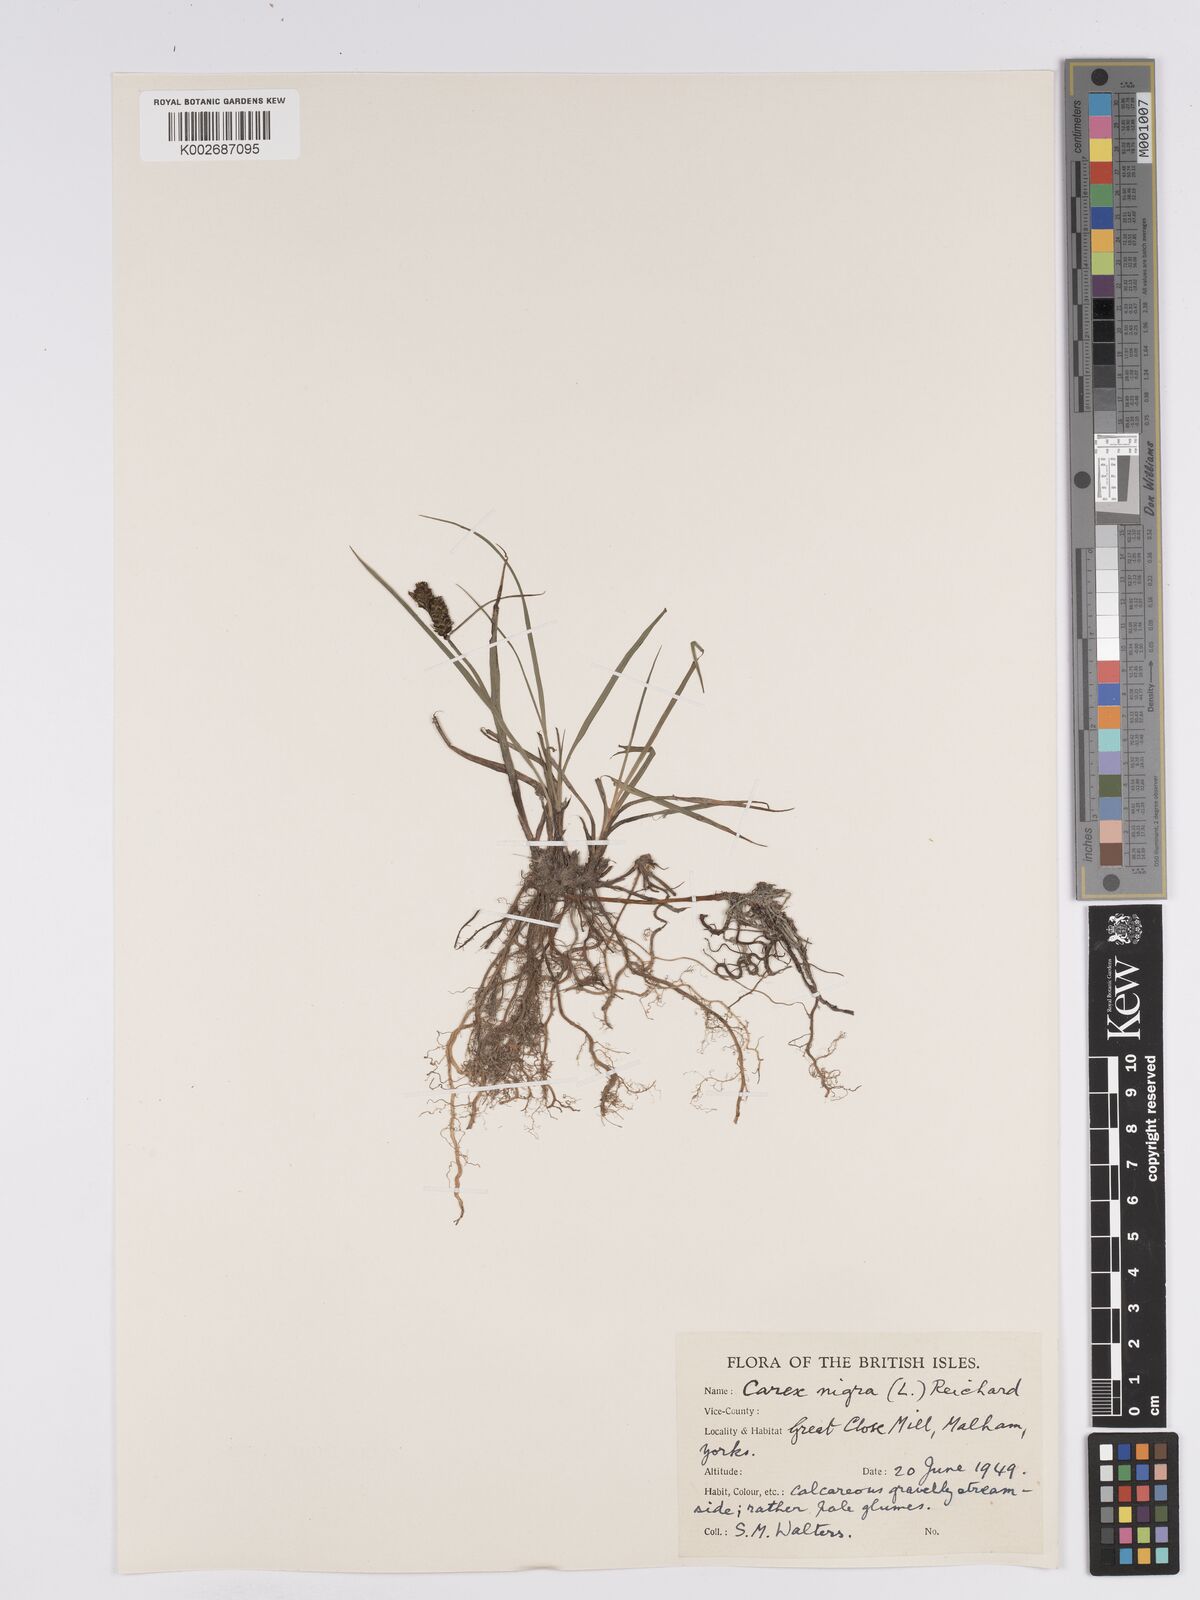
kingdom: Plantae
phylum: Tracheophyta
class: Liliopsida
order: Poales
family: Cyperaceae
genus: Carex
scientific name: Carex nigra
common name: Common sedge
